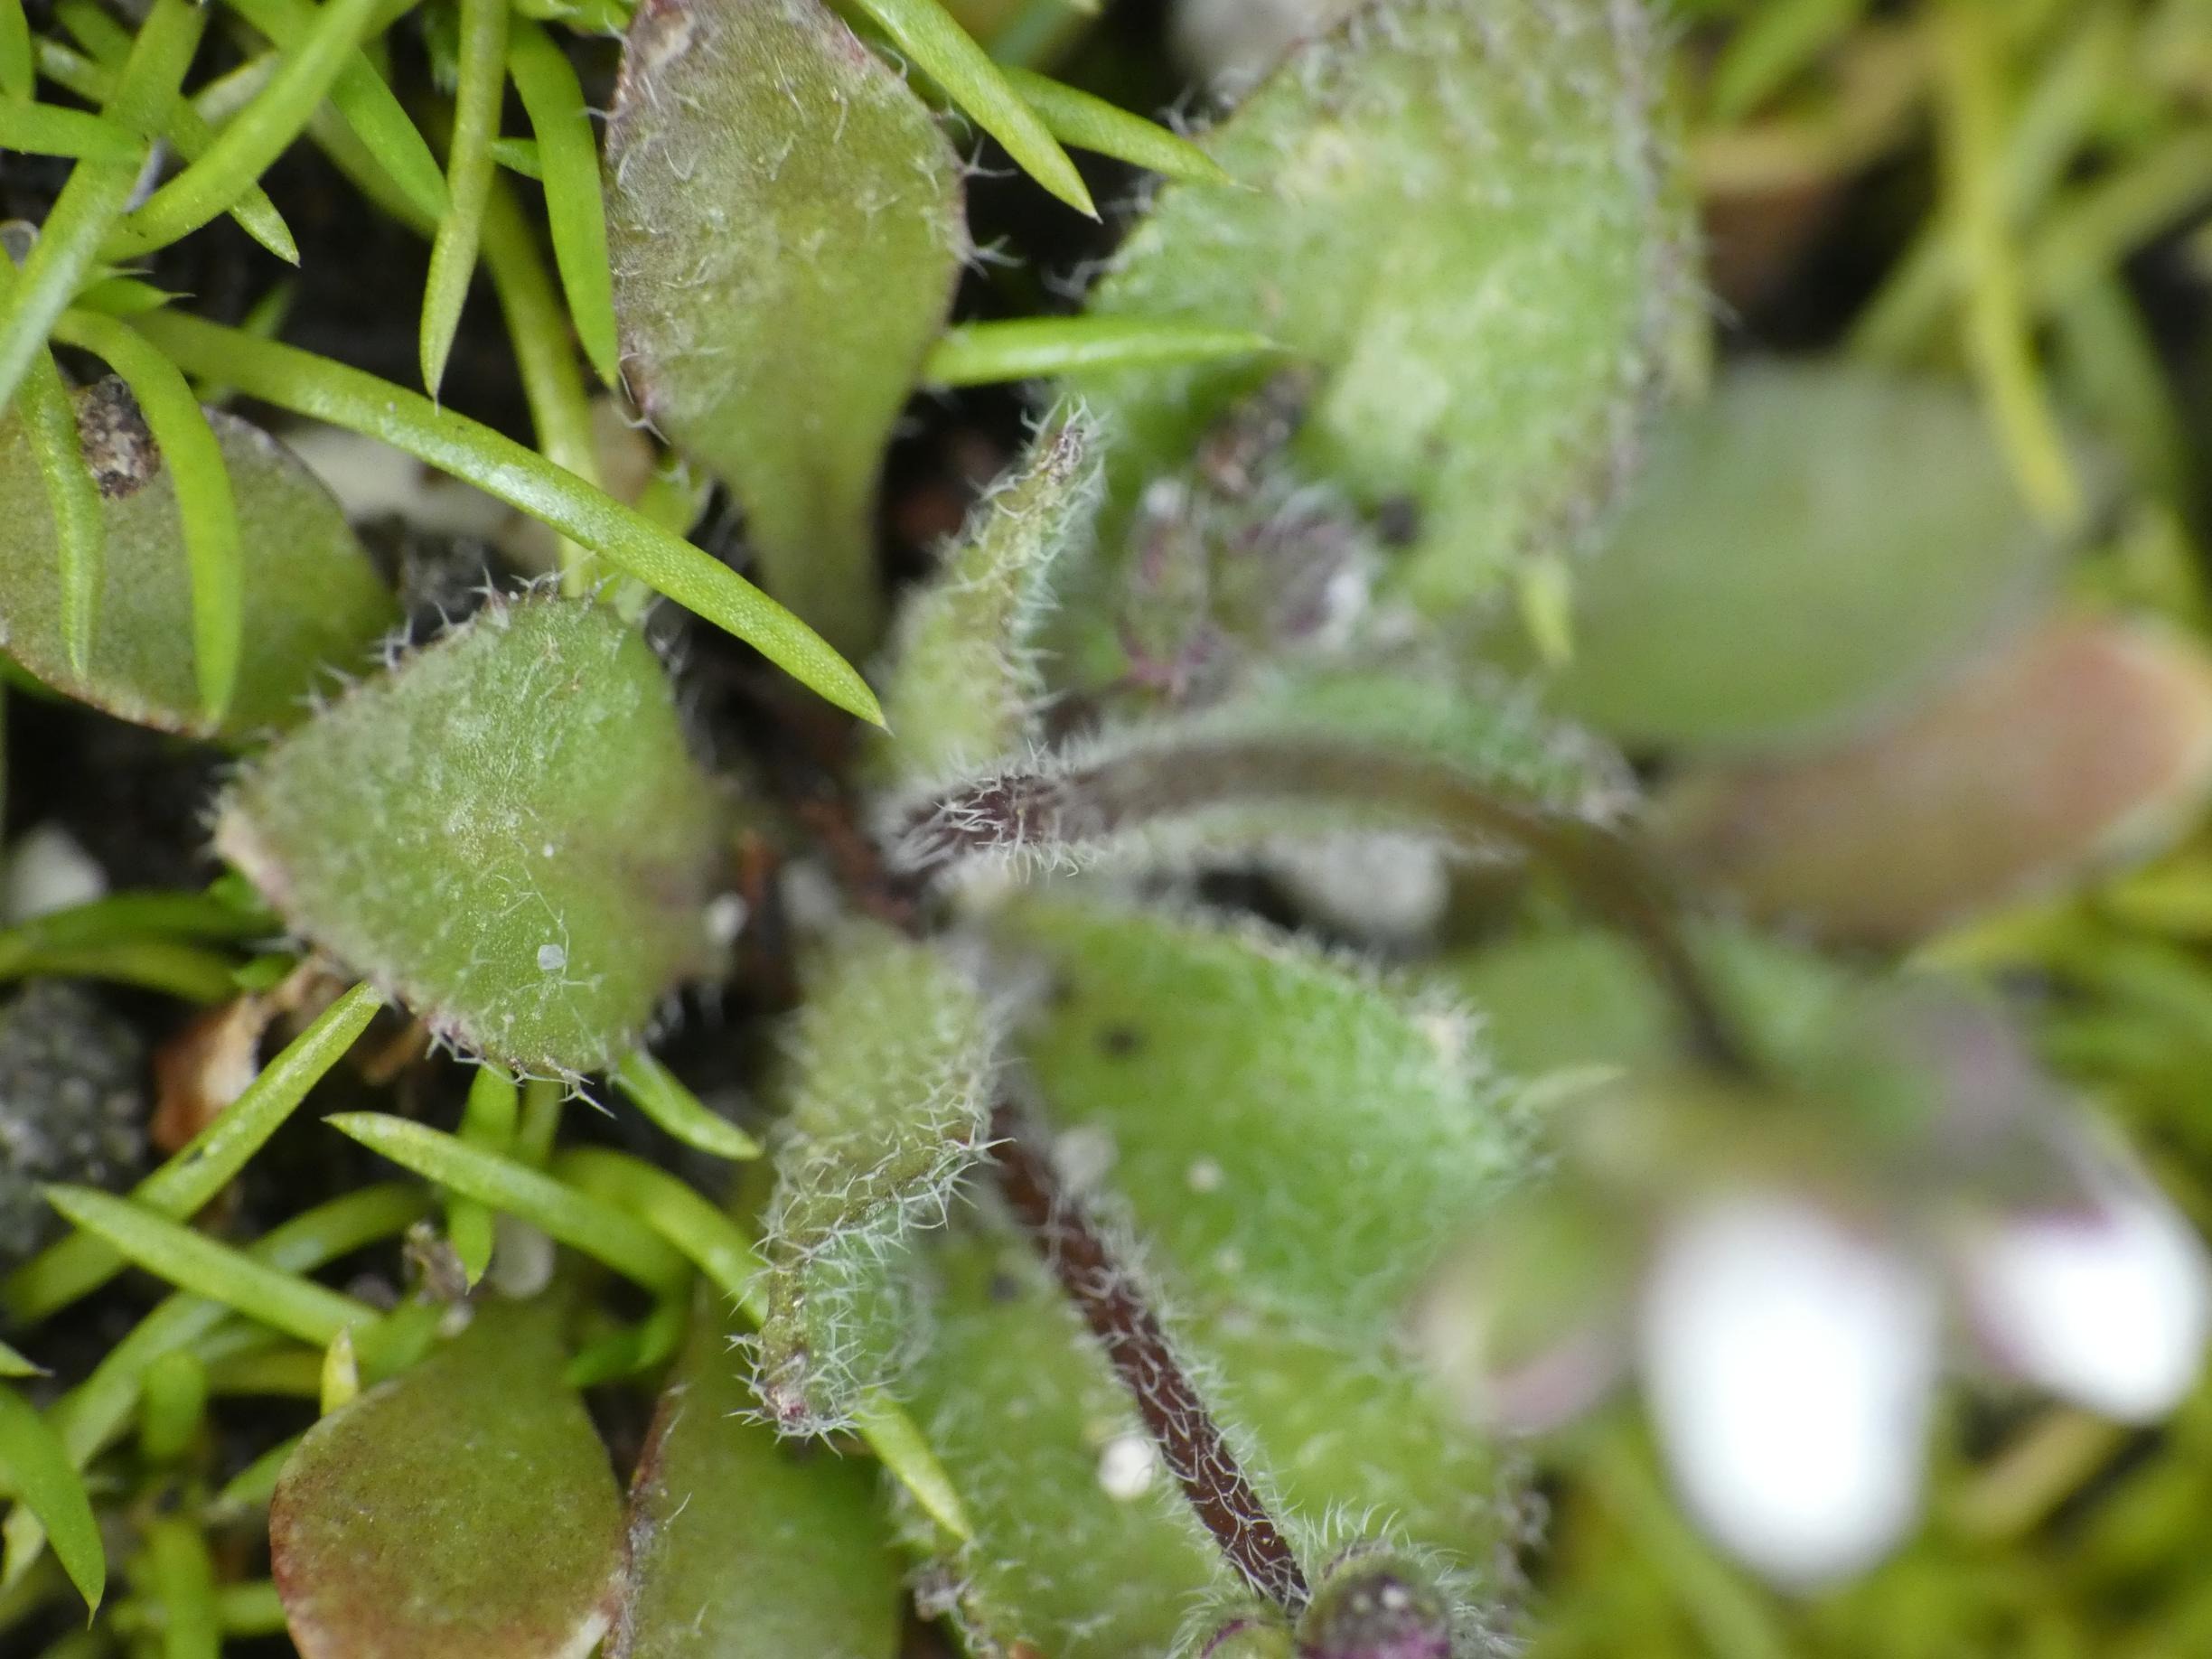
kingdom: Plantae
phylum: Tracheophyta
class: Magnoliopsida
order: Brassicales
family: Brassicaceae
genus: Draba
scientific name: Draba verna
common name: Vår-gæslingeblomst
